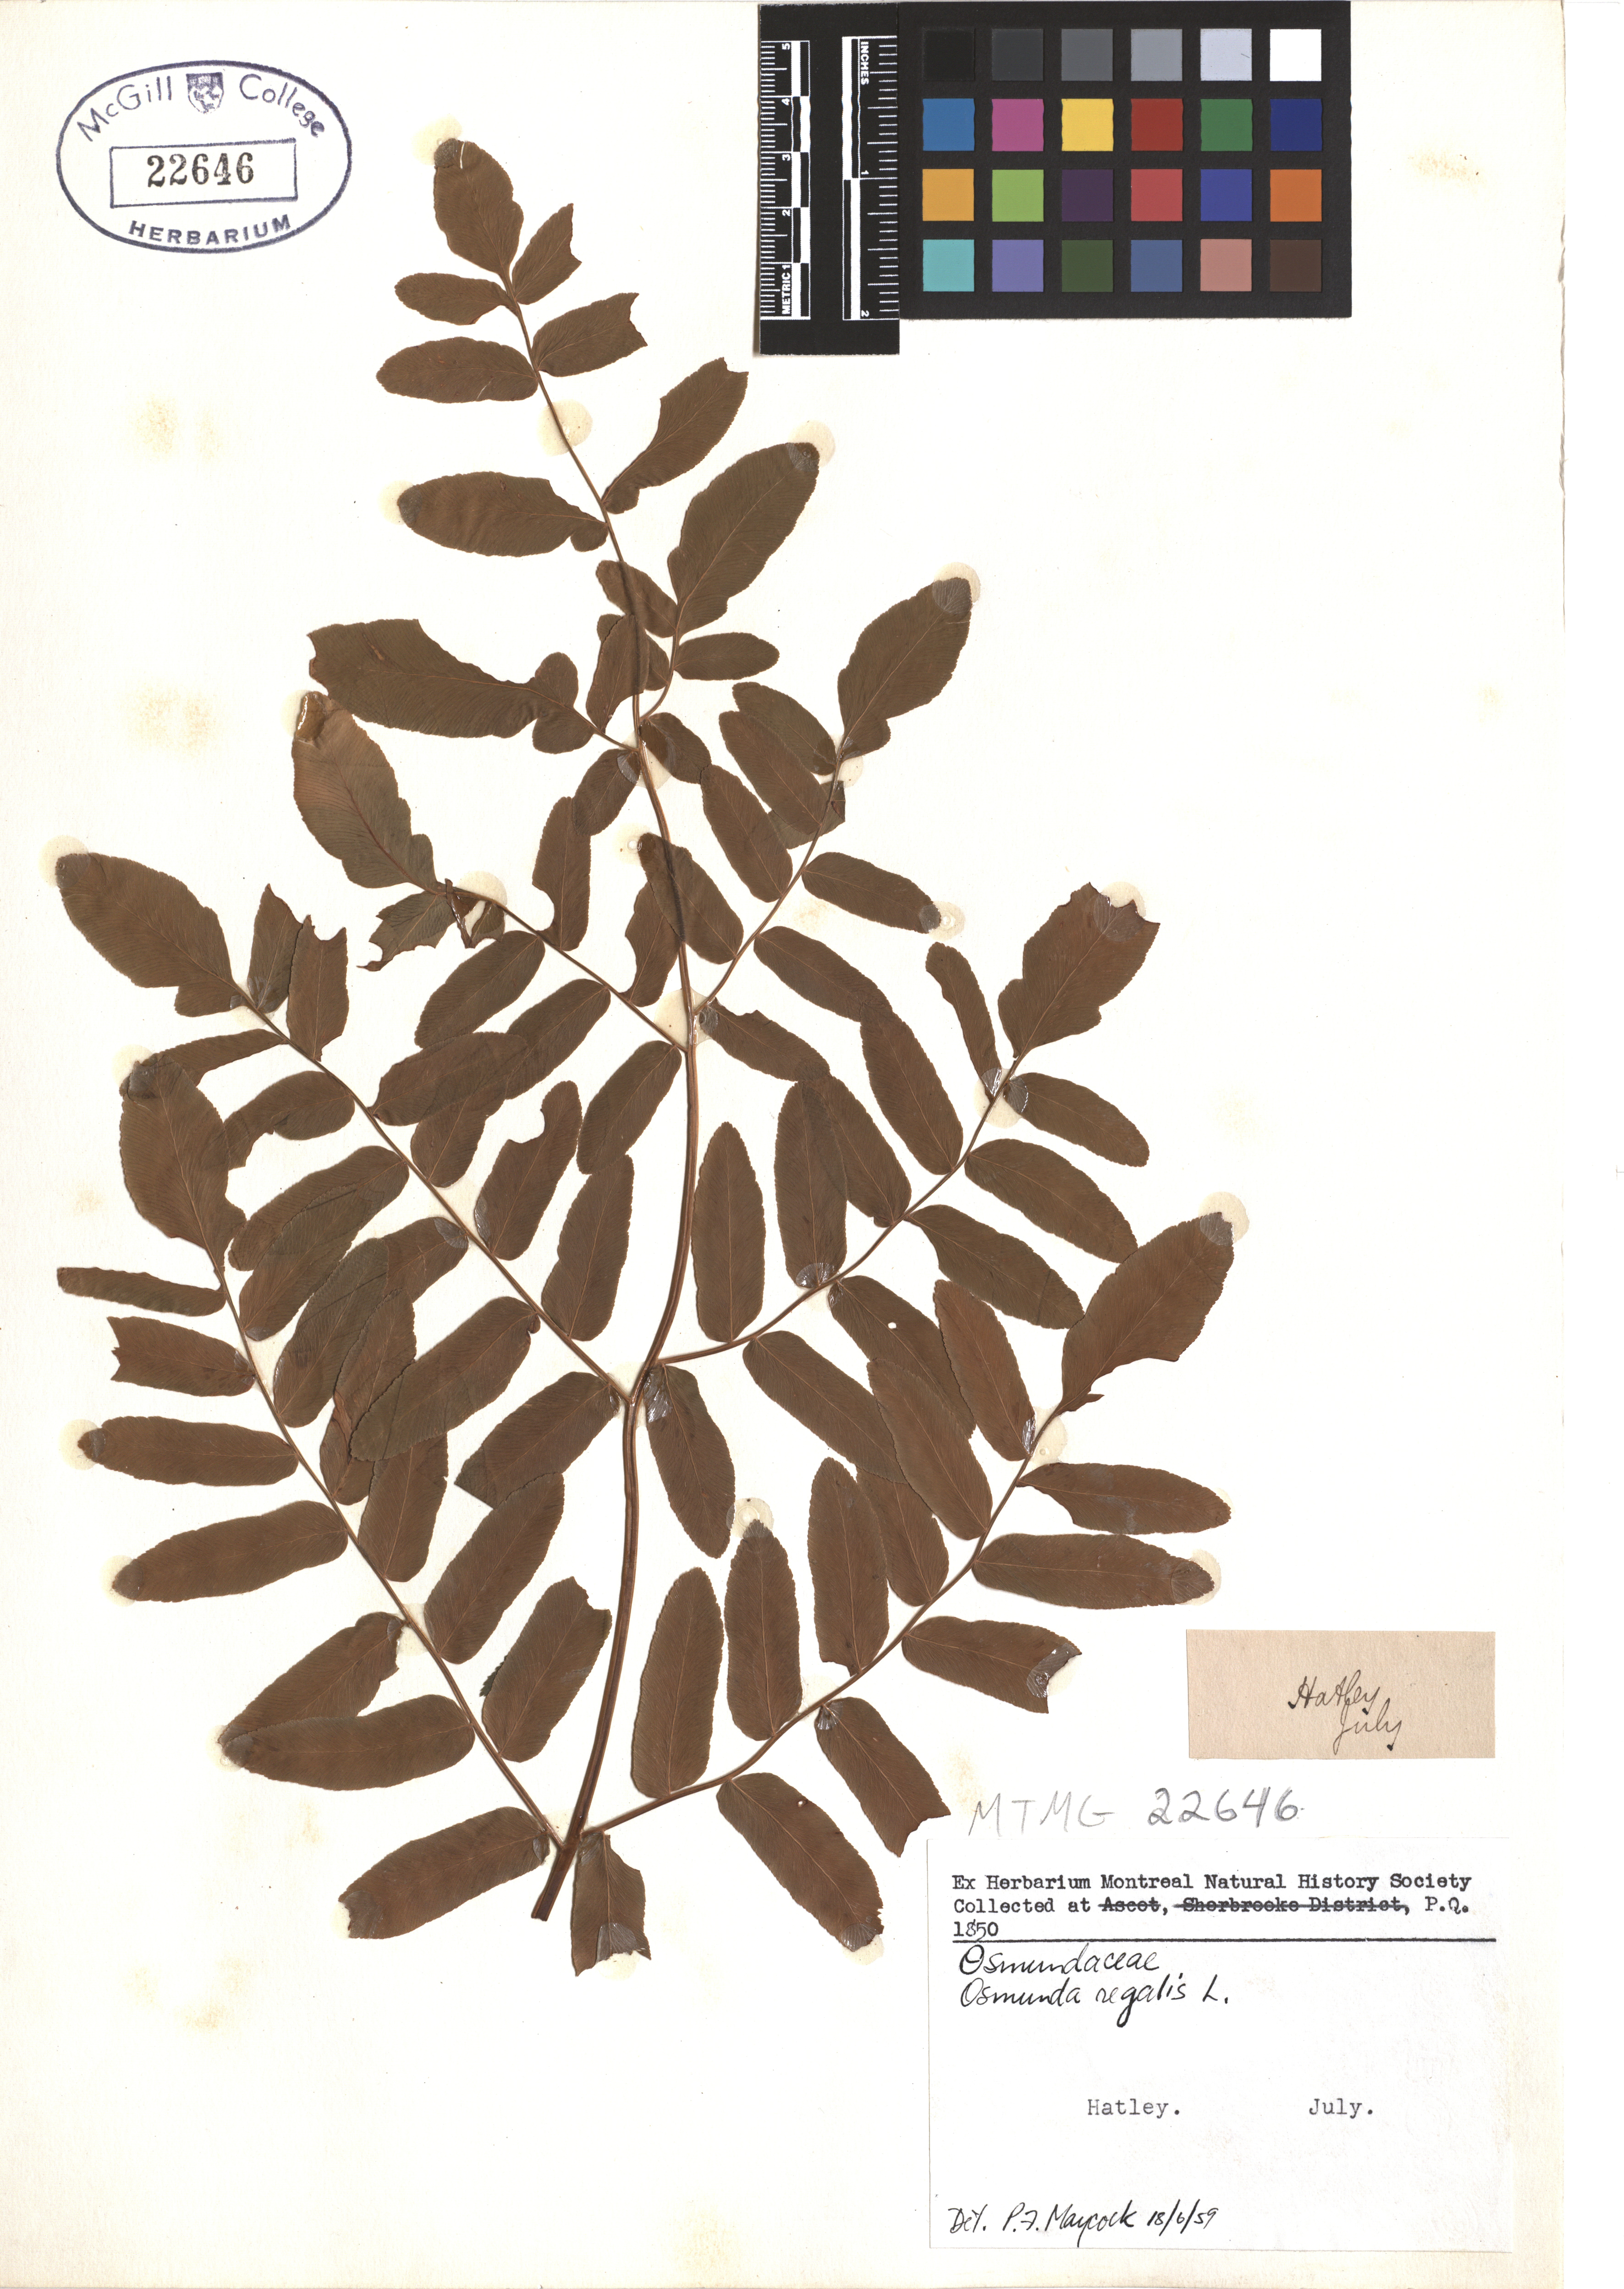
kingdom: Plantae
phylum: Tracheophyta
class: Polypodiopsida
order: Osmundales
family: Osmundaceae
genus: Osmunda
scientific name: Osmunda regalis
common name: Royal fern
